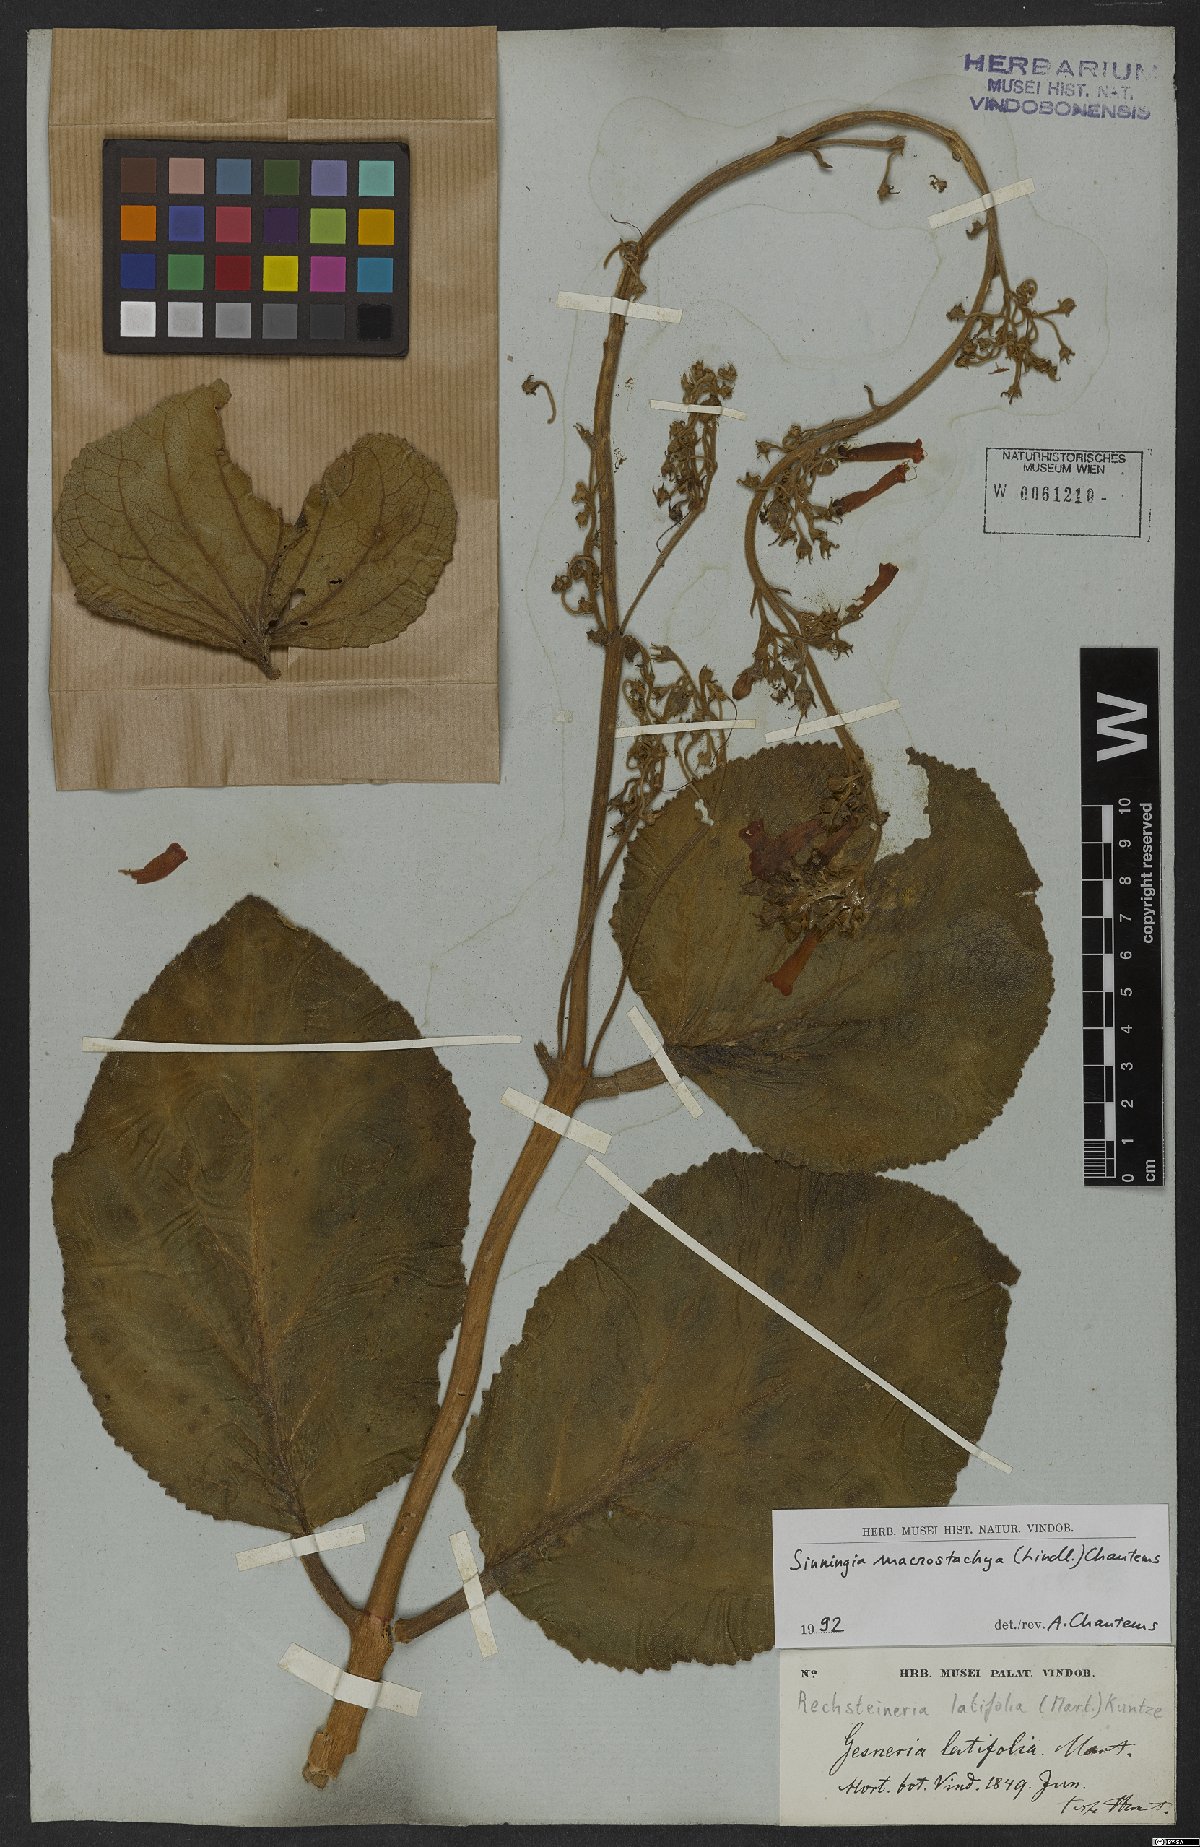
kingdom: Plantae
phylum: Tracheophyta
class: Magnoliopsida
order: Lamiales
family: Gesneriaceae
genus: Sinningia
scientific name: Sinningia macrostachya
